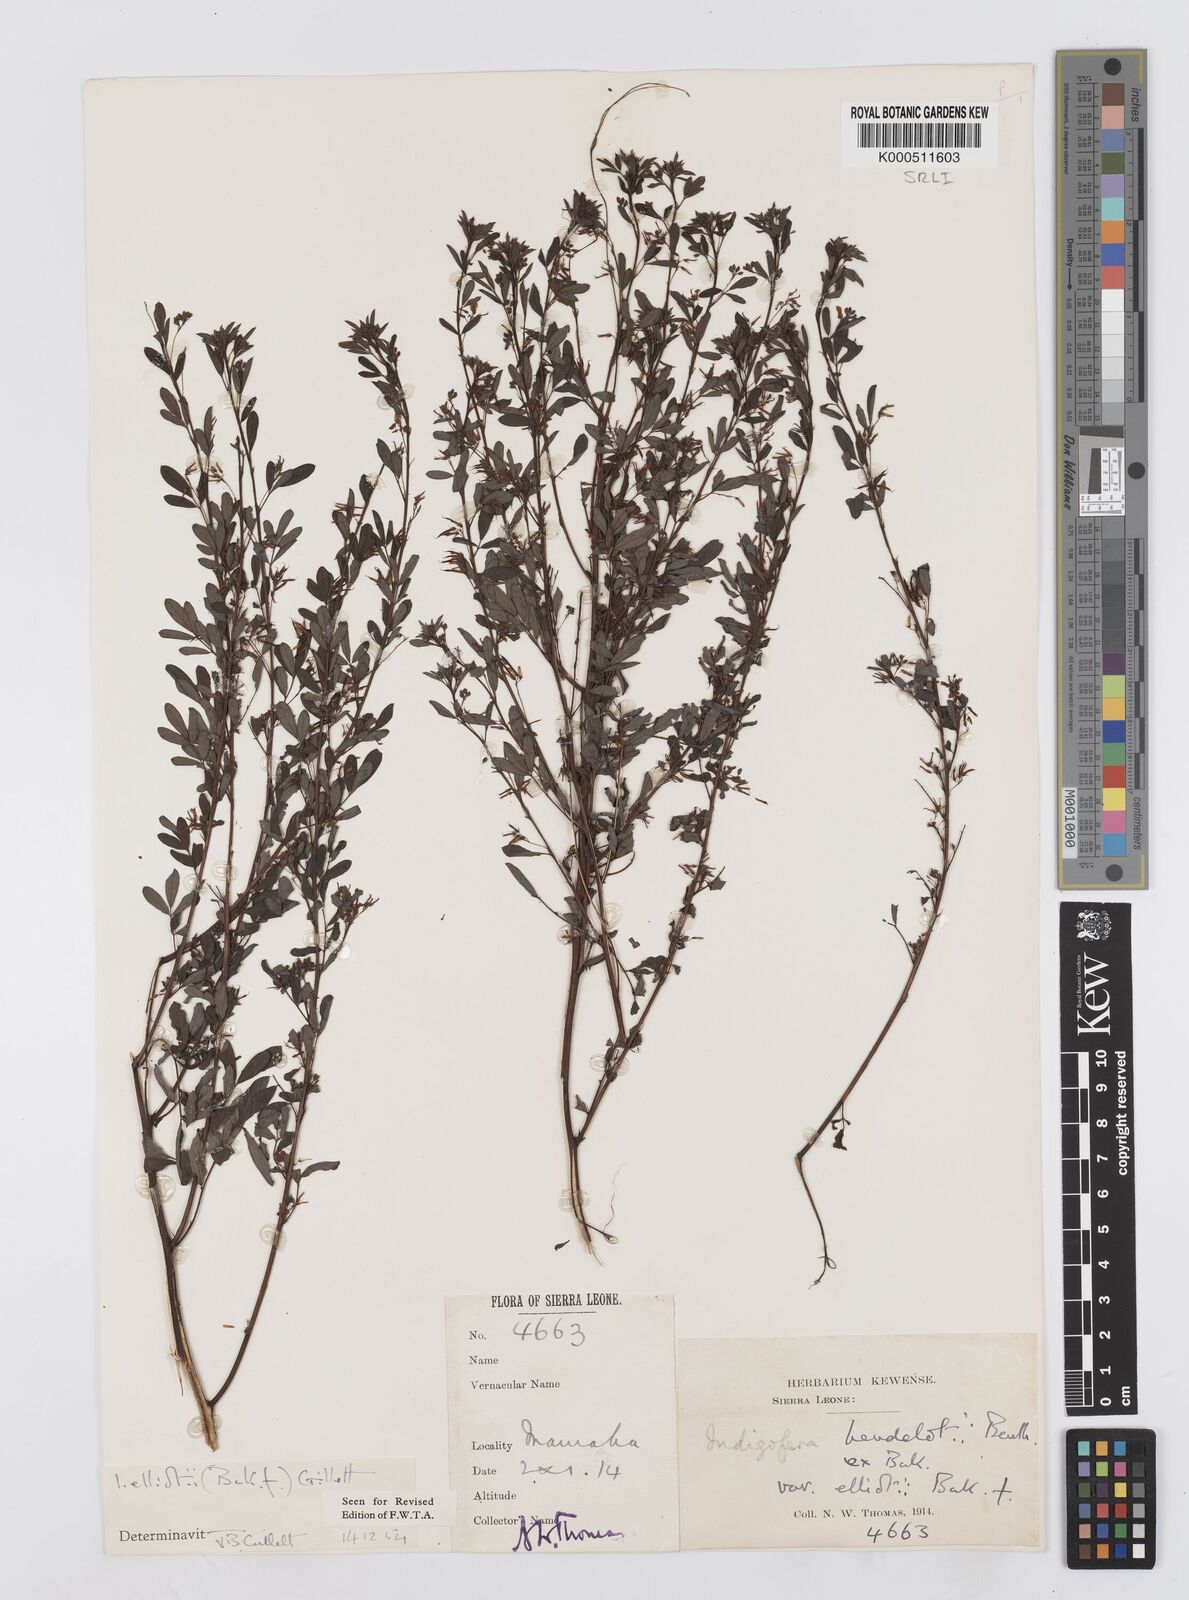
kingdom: Plantae
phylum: Tracheophyta
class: Magnoliopsida
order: Fabales
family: Fabaceae
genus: Indigofera
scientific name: Indigofera elliotii
